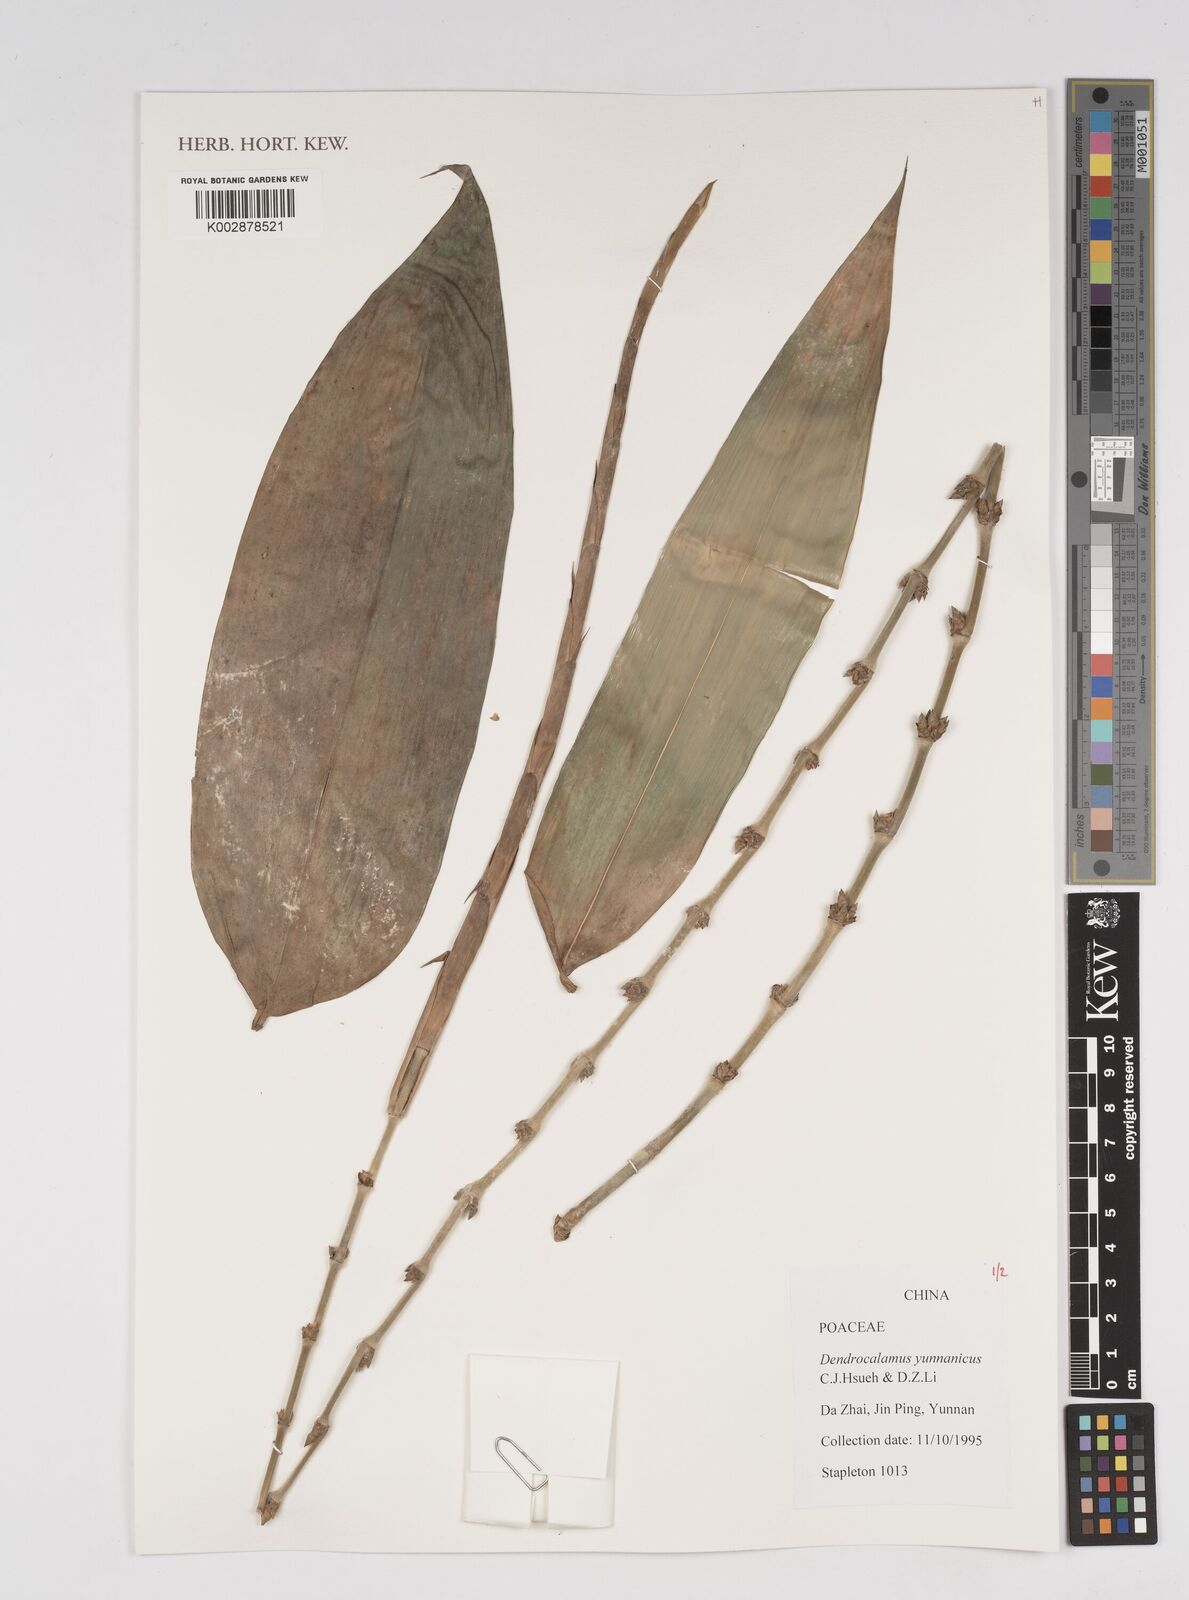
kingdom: Plantae
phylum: Tracheophyta
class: Liliopsida
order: Poales
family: Poaceae
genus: Dendrocalamus
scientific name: Dendrocalamus yunnanicus
